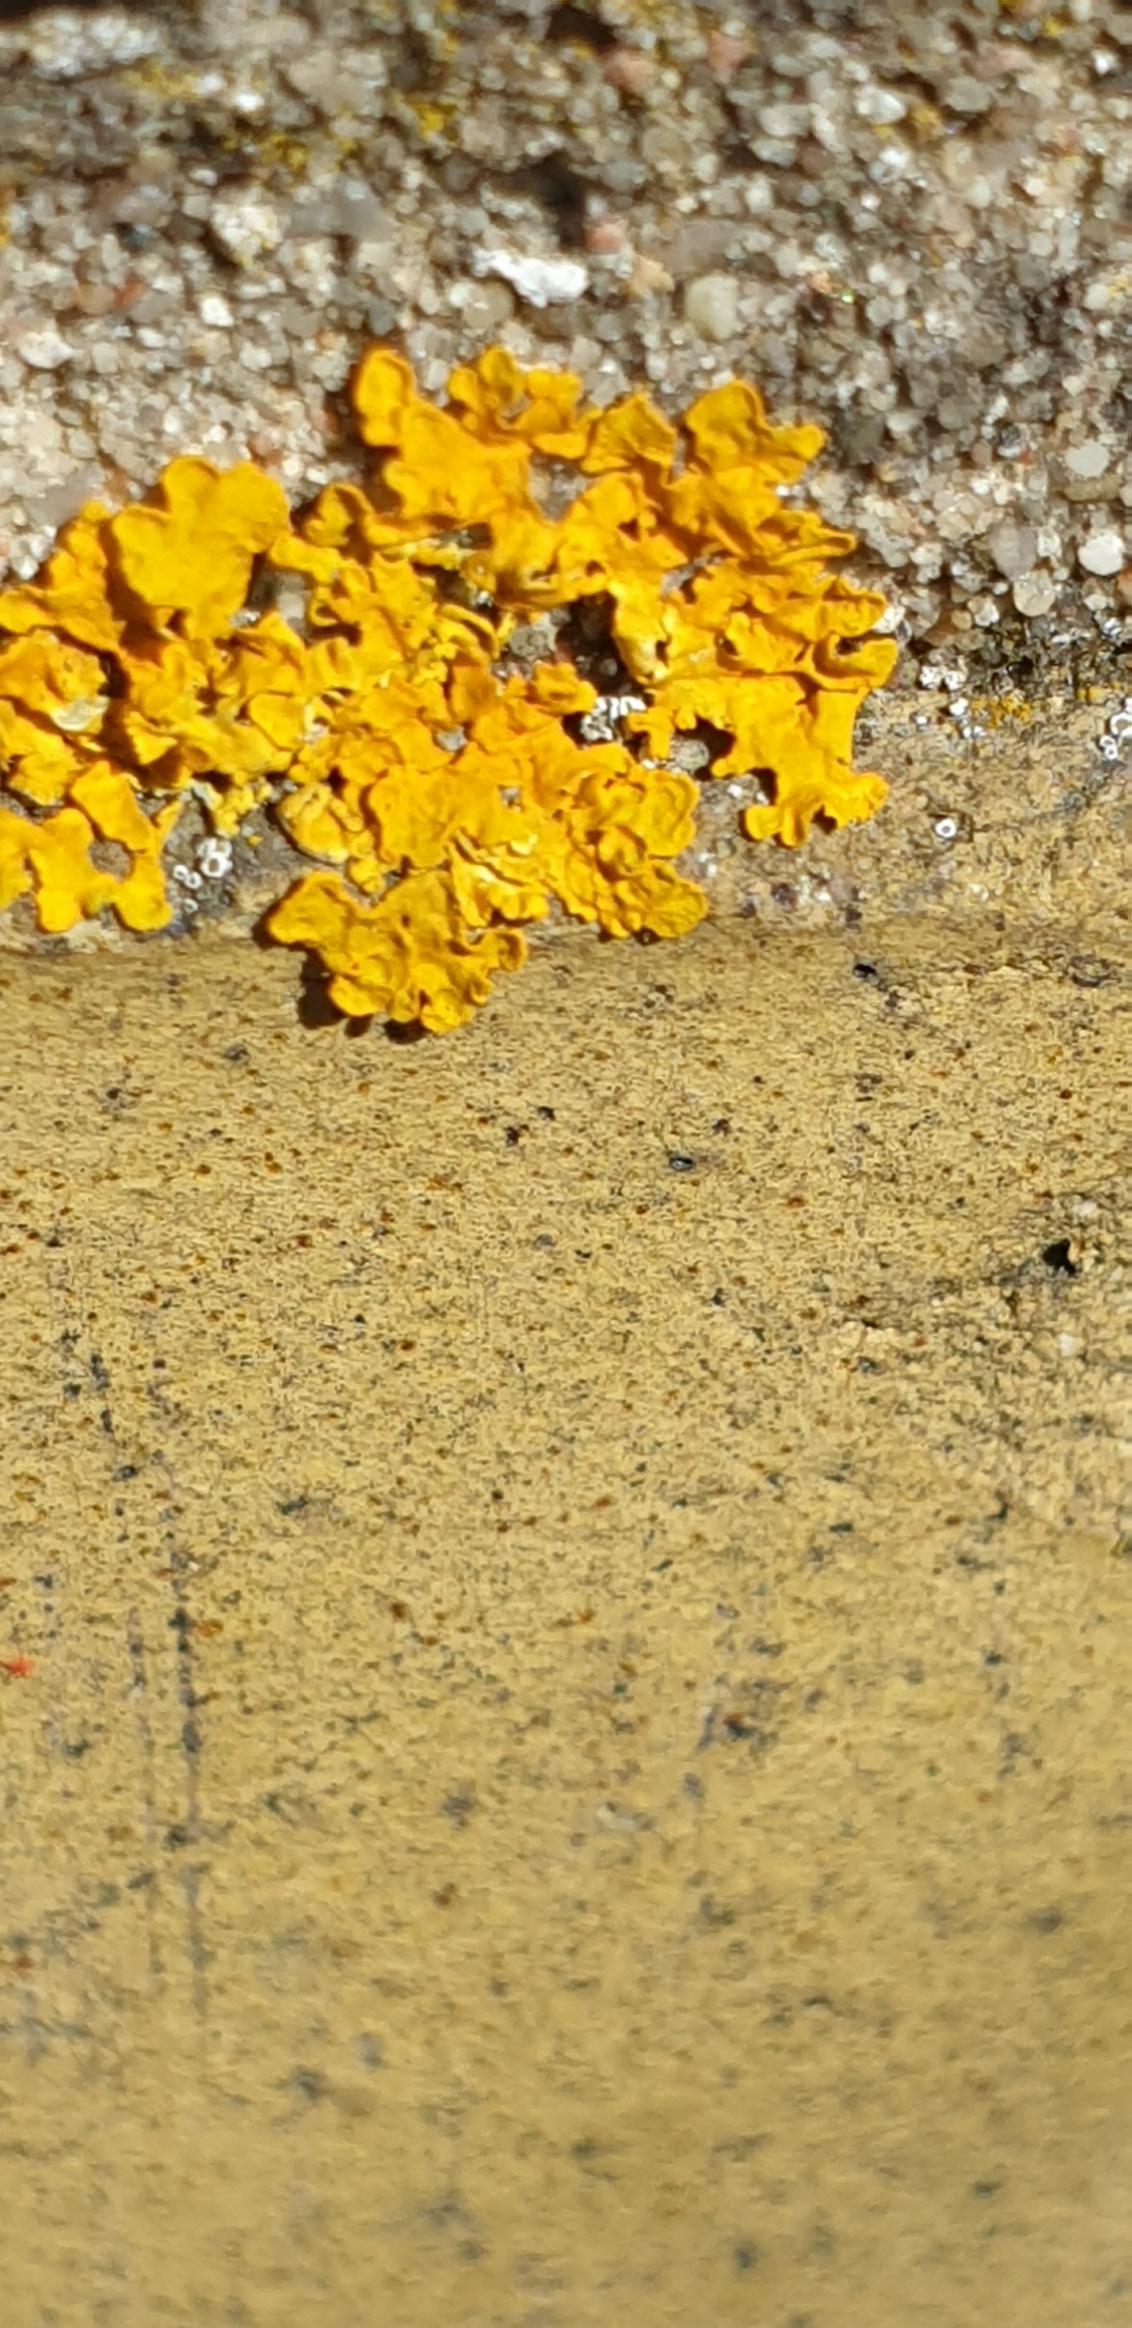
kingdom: Fungi
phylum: Ascomycota
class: Lecanoromycetes
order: Teloschistales
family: Teloschistaceae
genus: Xanthoria
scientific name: Xanthoria parietina
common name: Almindelig væggelav
